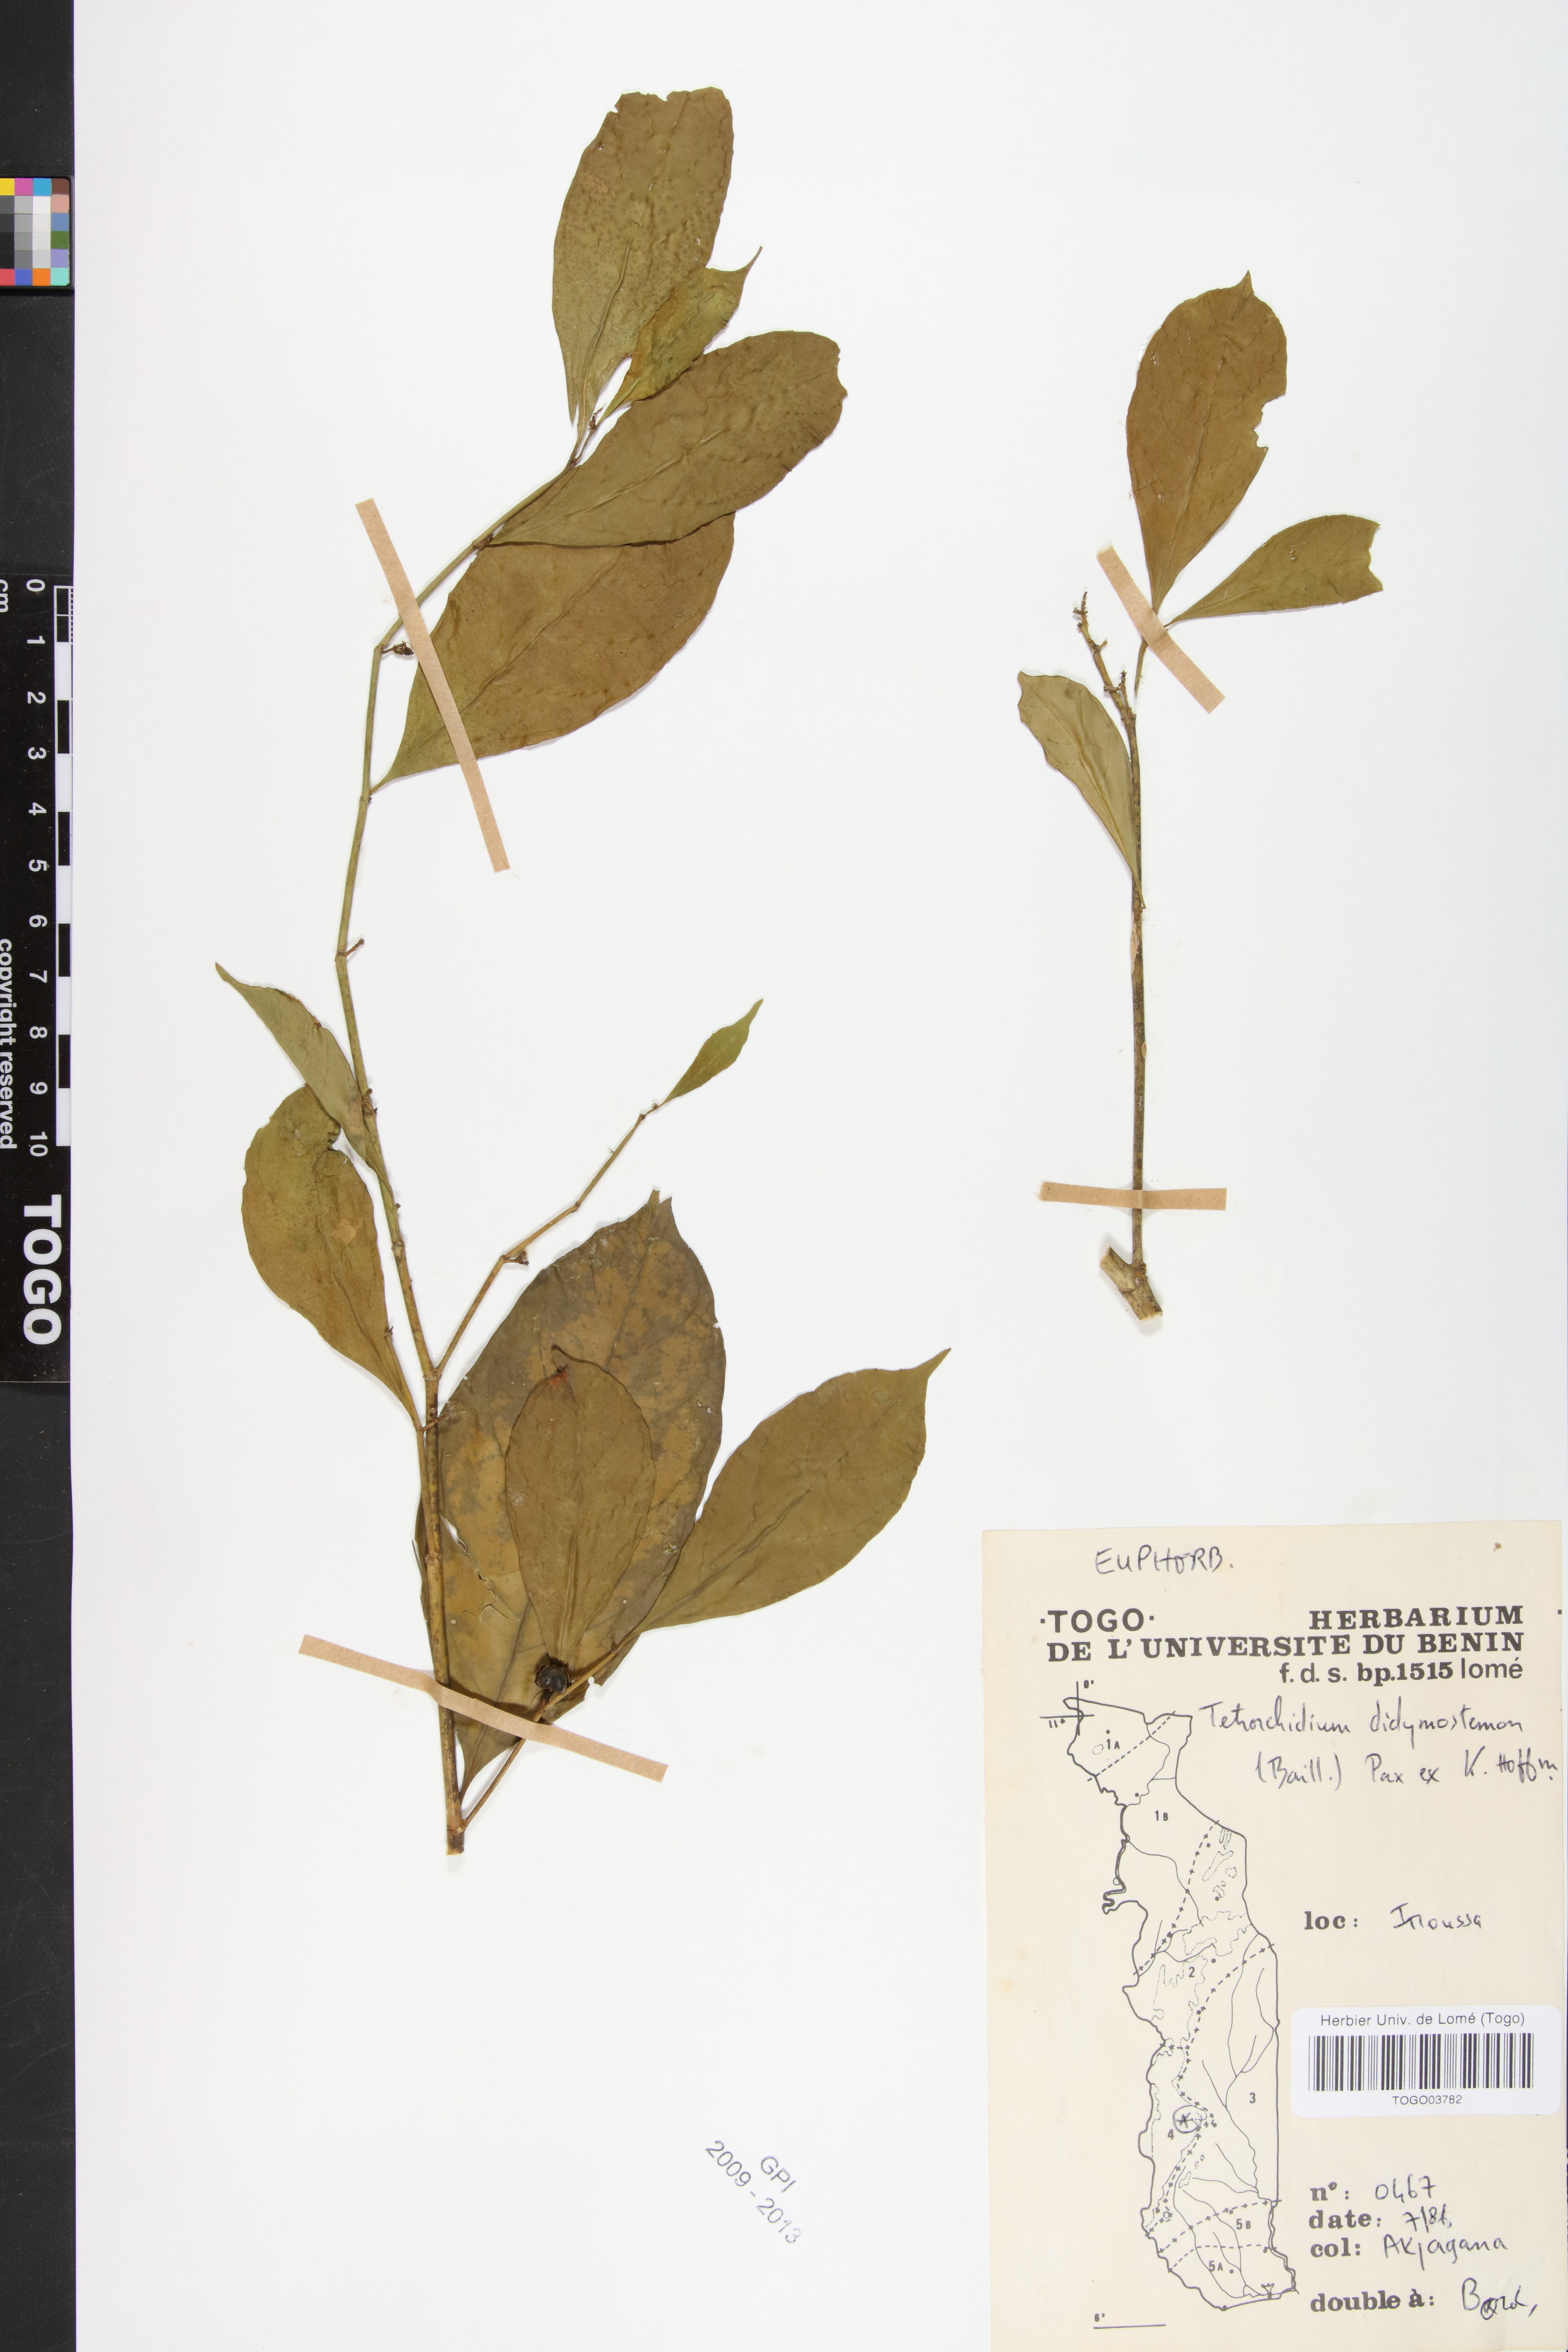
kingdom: Plantae
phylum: Tracheophyta
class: Magnoliopsida
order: Malpighiales
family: Euphorbiaceae
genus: Tetrorchidium
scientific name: Tetrorchidium didymostemon
